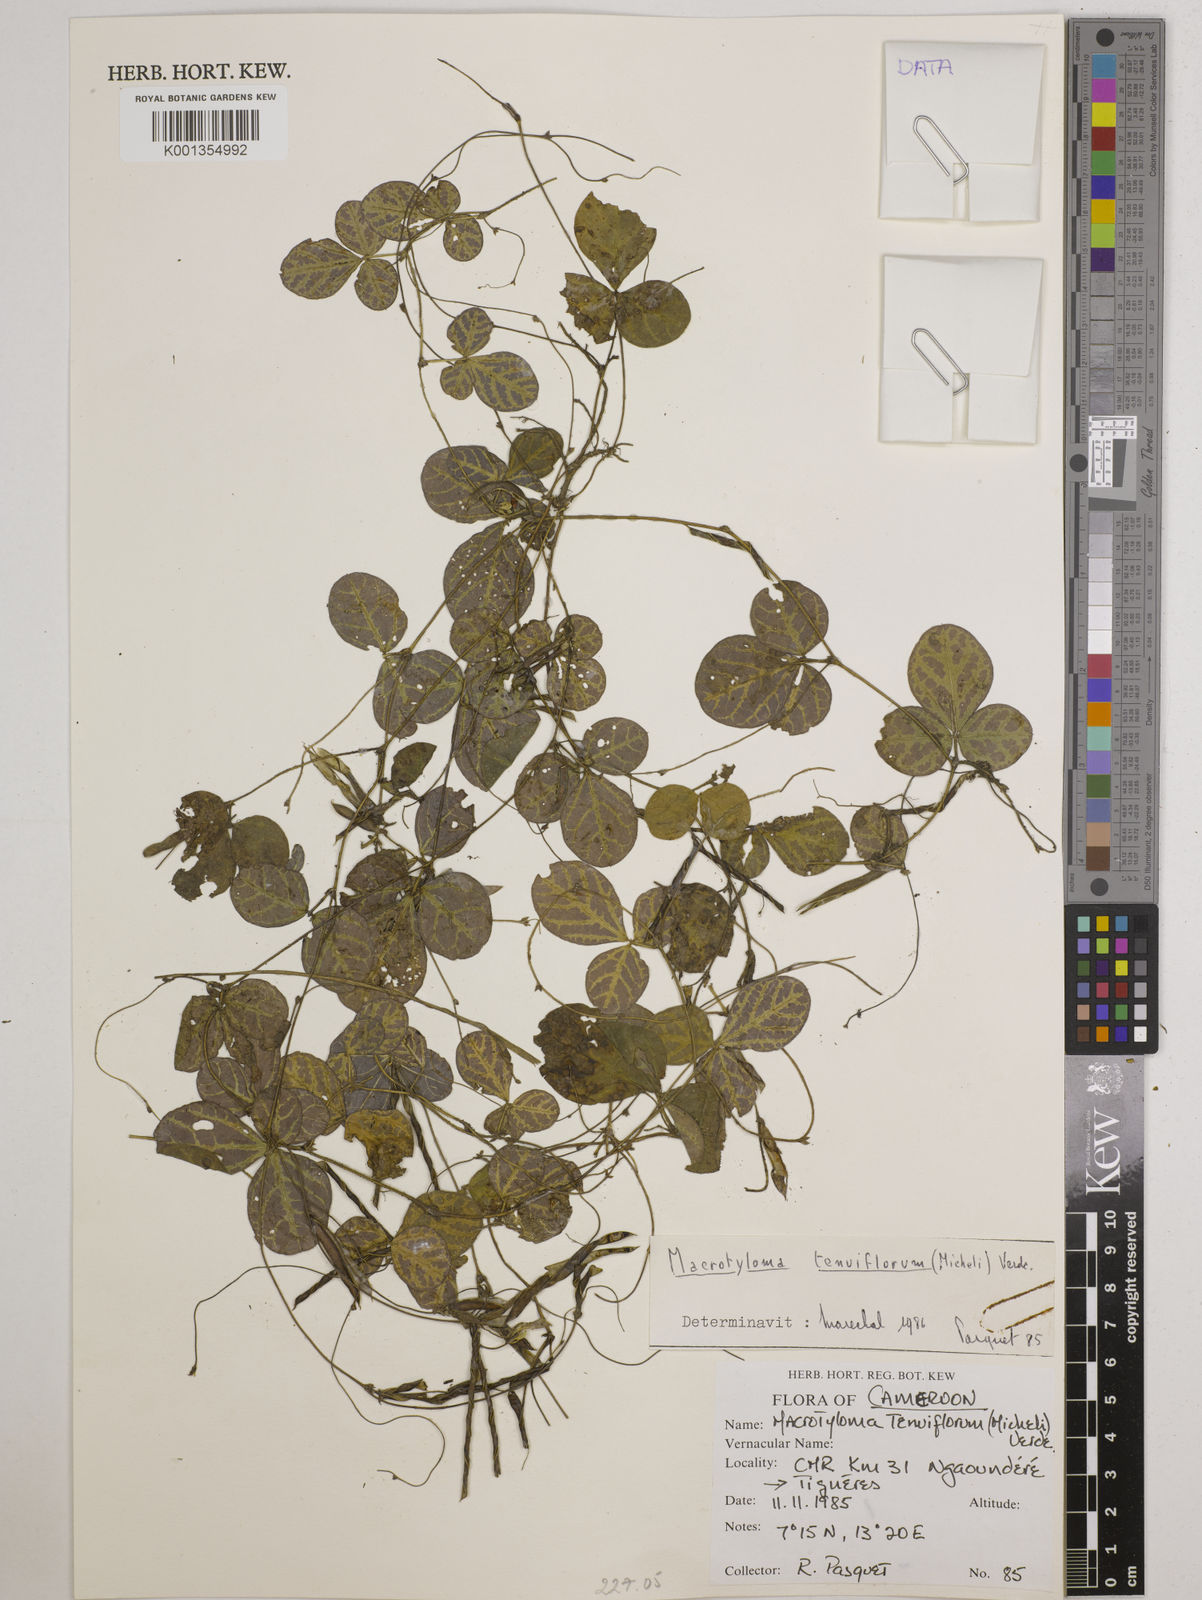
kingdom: Plantae
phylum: Tracheophyta
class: Magnoliopsida
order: Fabales
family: Fabaceae
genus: Macrotyloma
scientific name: Macrotyloma tenuiflorum
